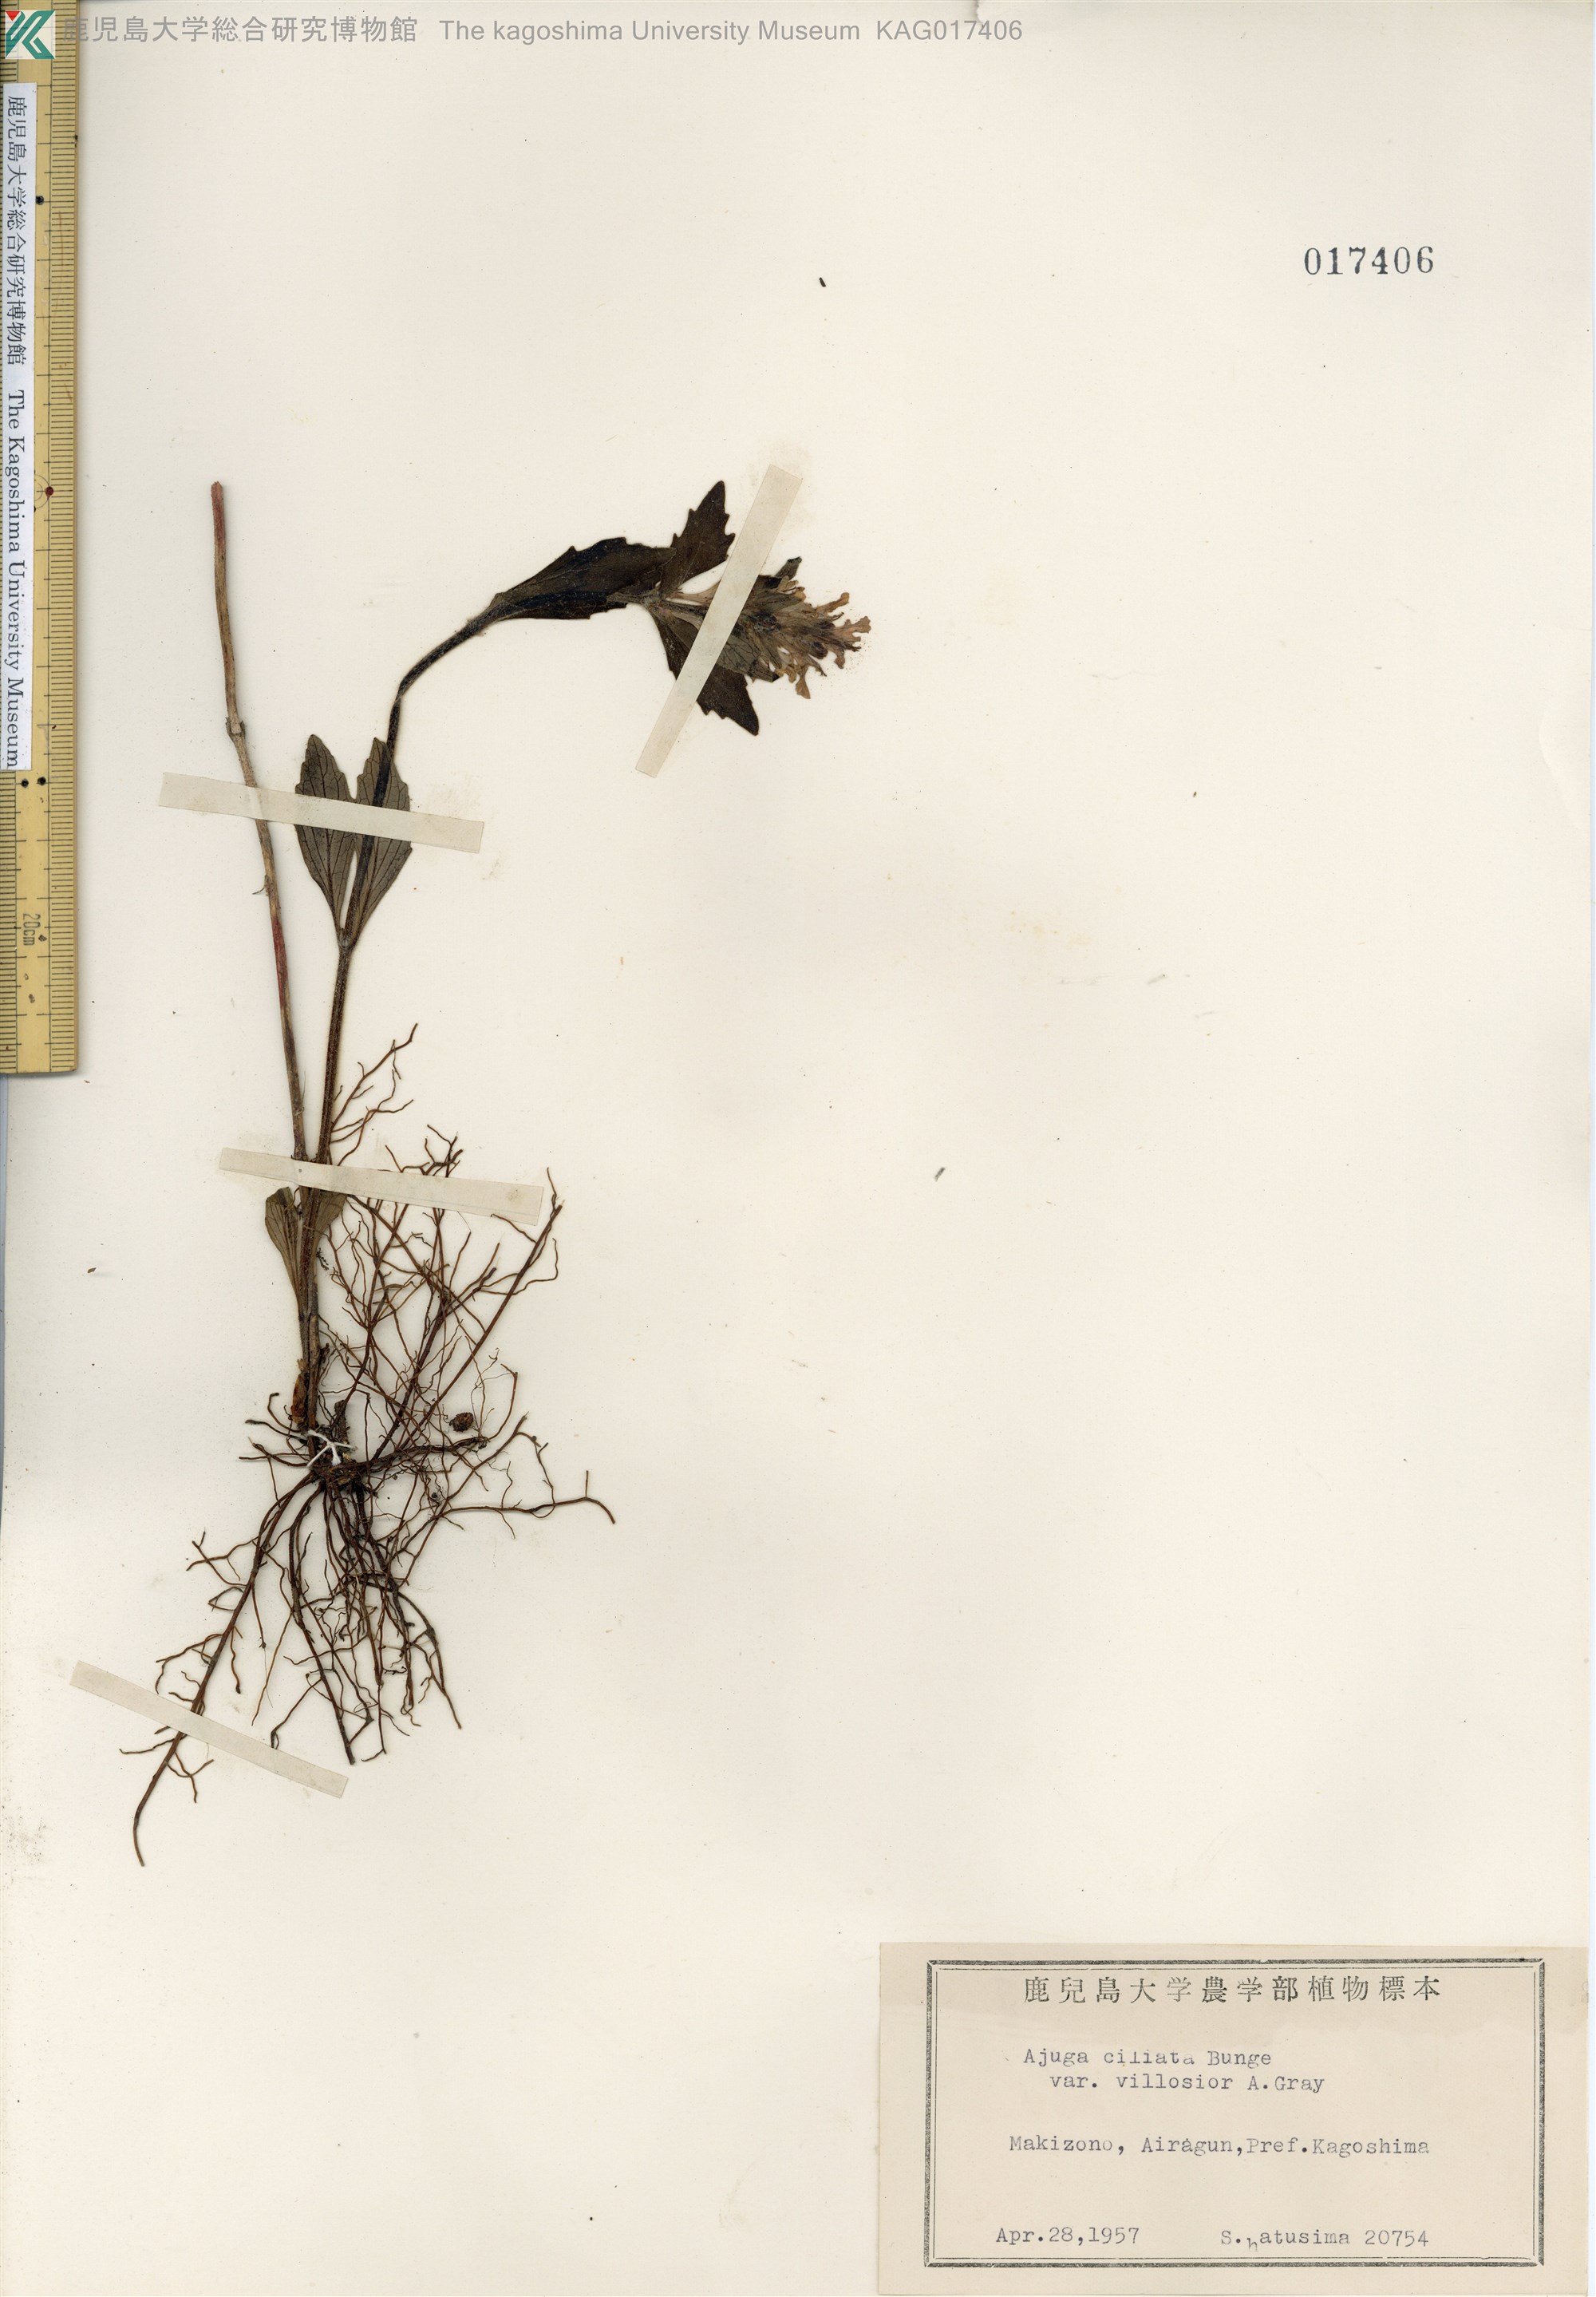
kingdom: Plantae
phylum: Tracheophyta
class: Magnoliopsida
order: Lamiales
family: Lamiaceae
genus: Ajuga
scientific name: Ajuga ciliata
